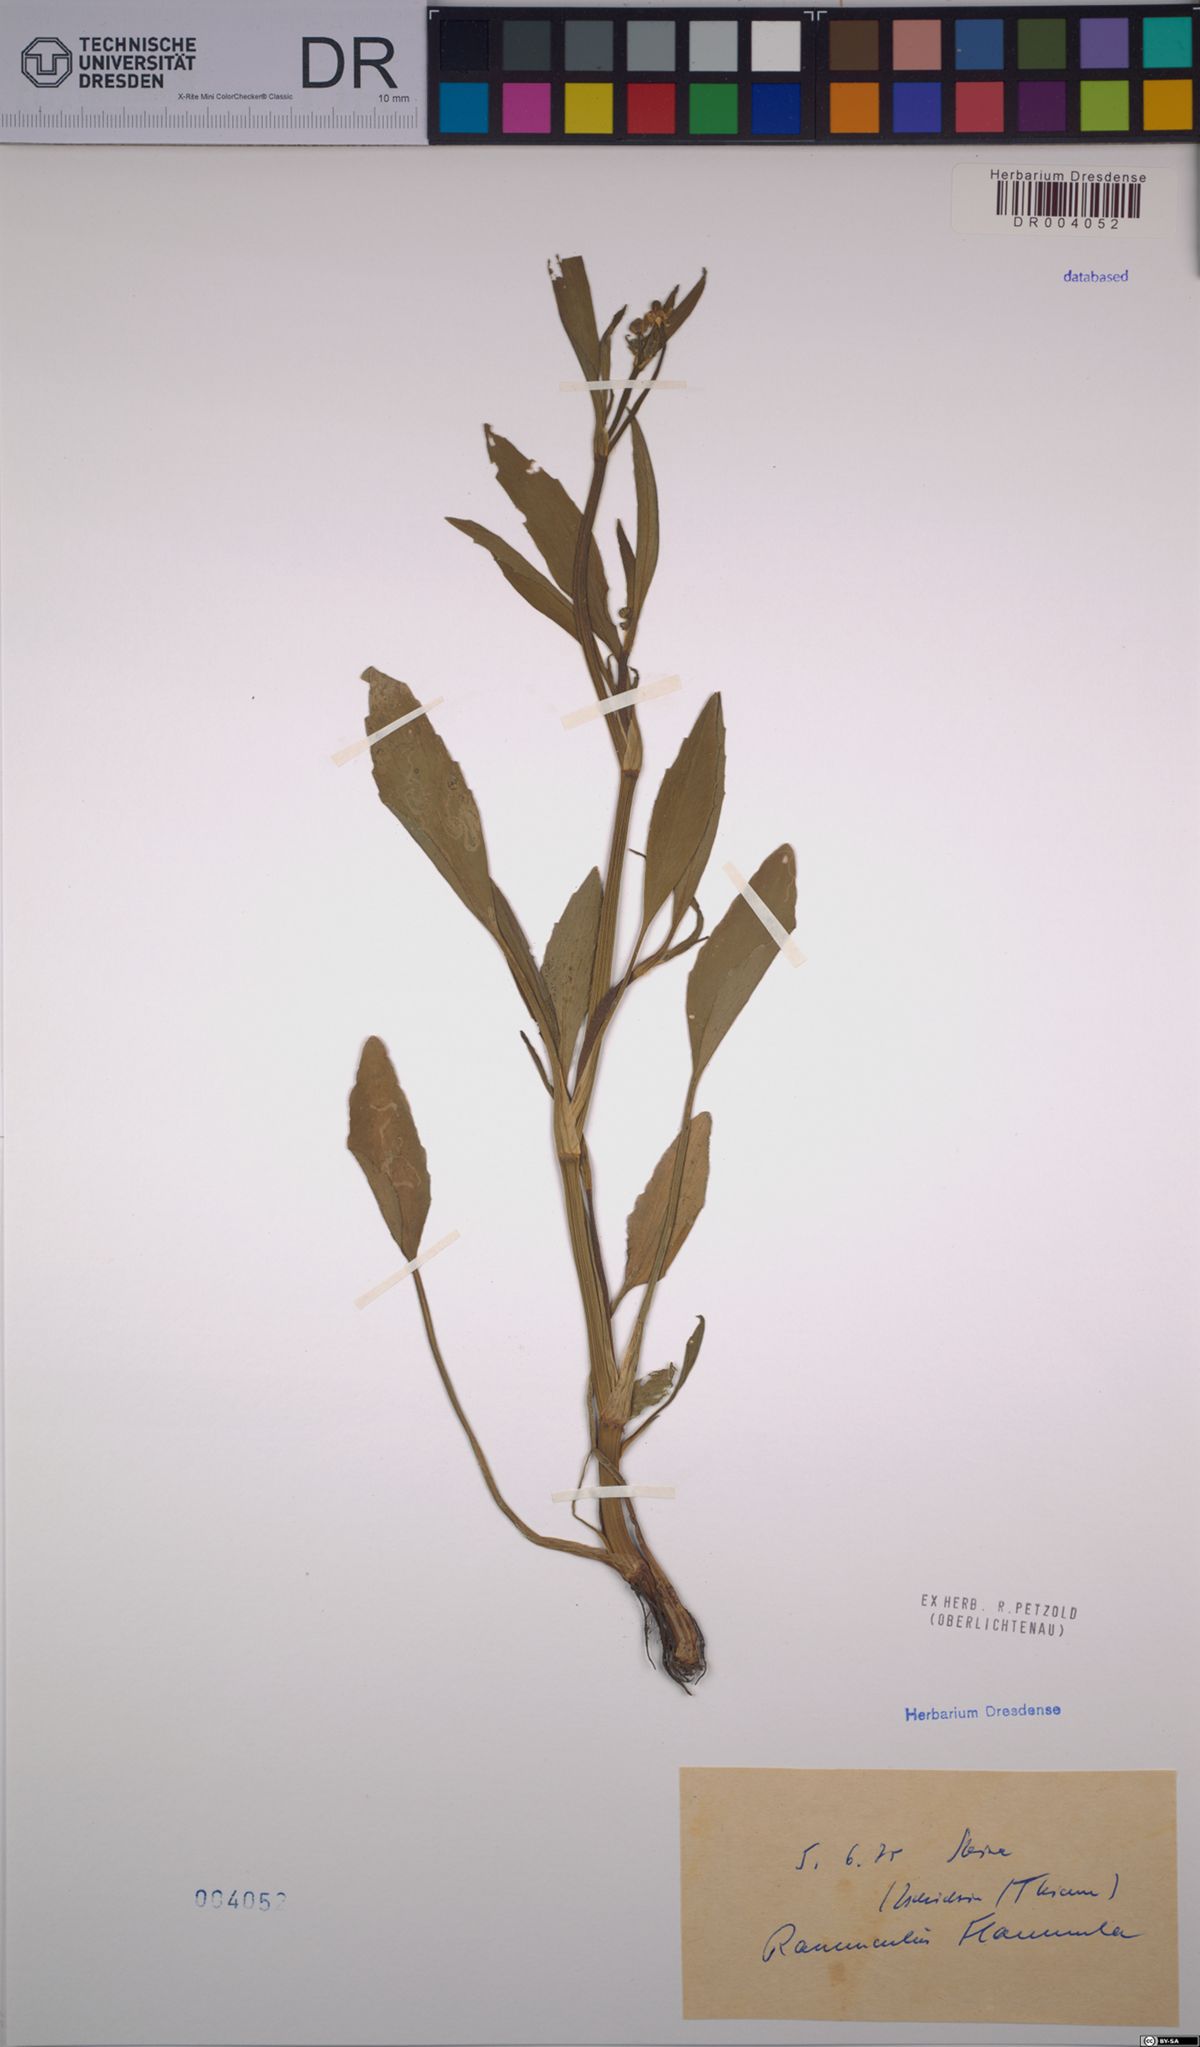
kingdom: Plantae
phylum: Tracheophyta
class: Magnoliopsida
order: Ranunculales
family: Ranunculaceae
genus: Ranunculus
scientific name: Ranunculus flammula
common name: Lesser spearwort
